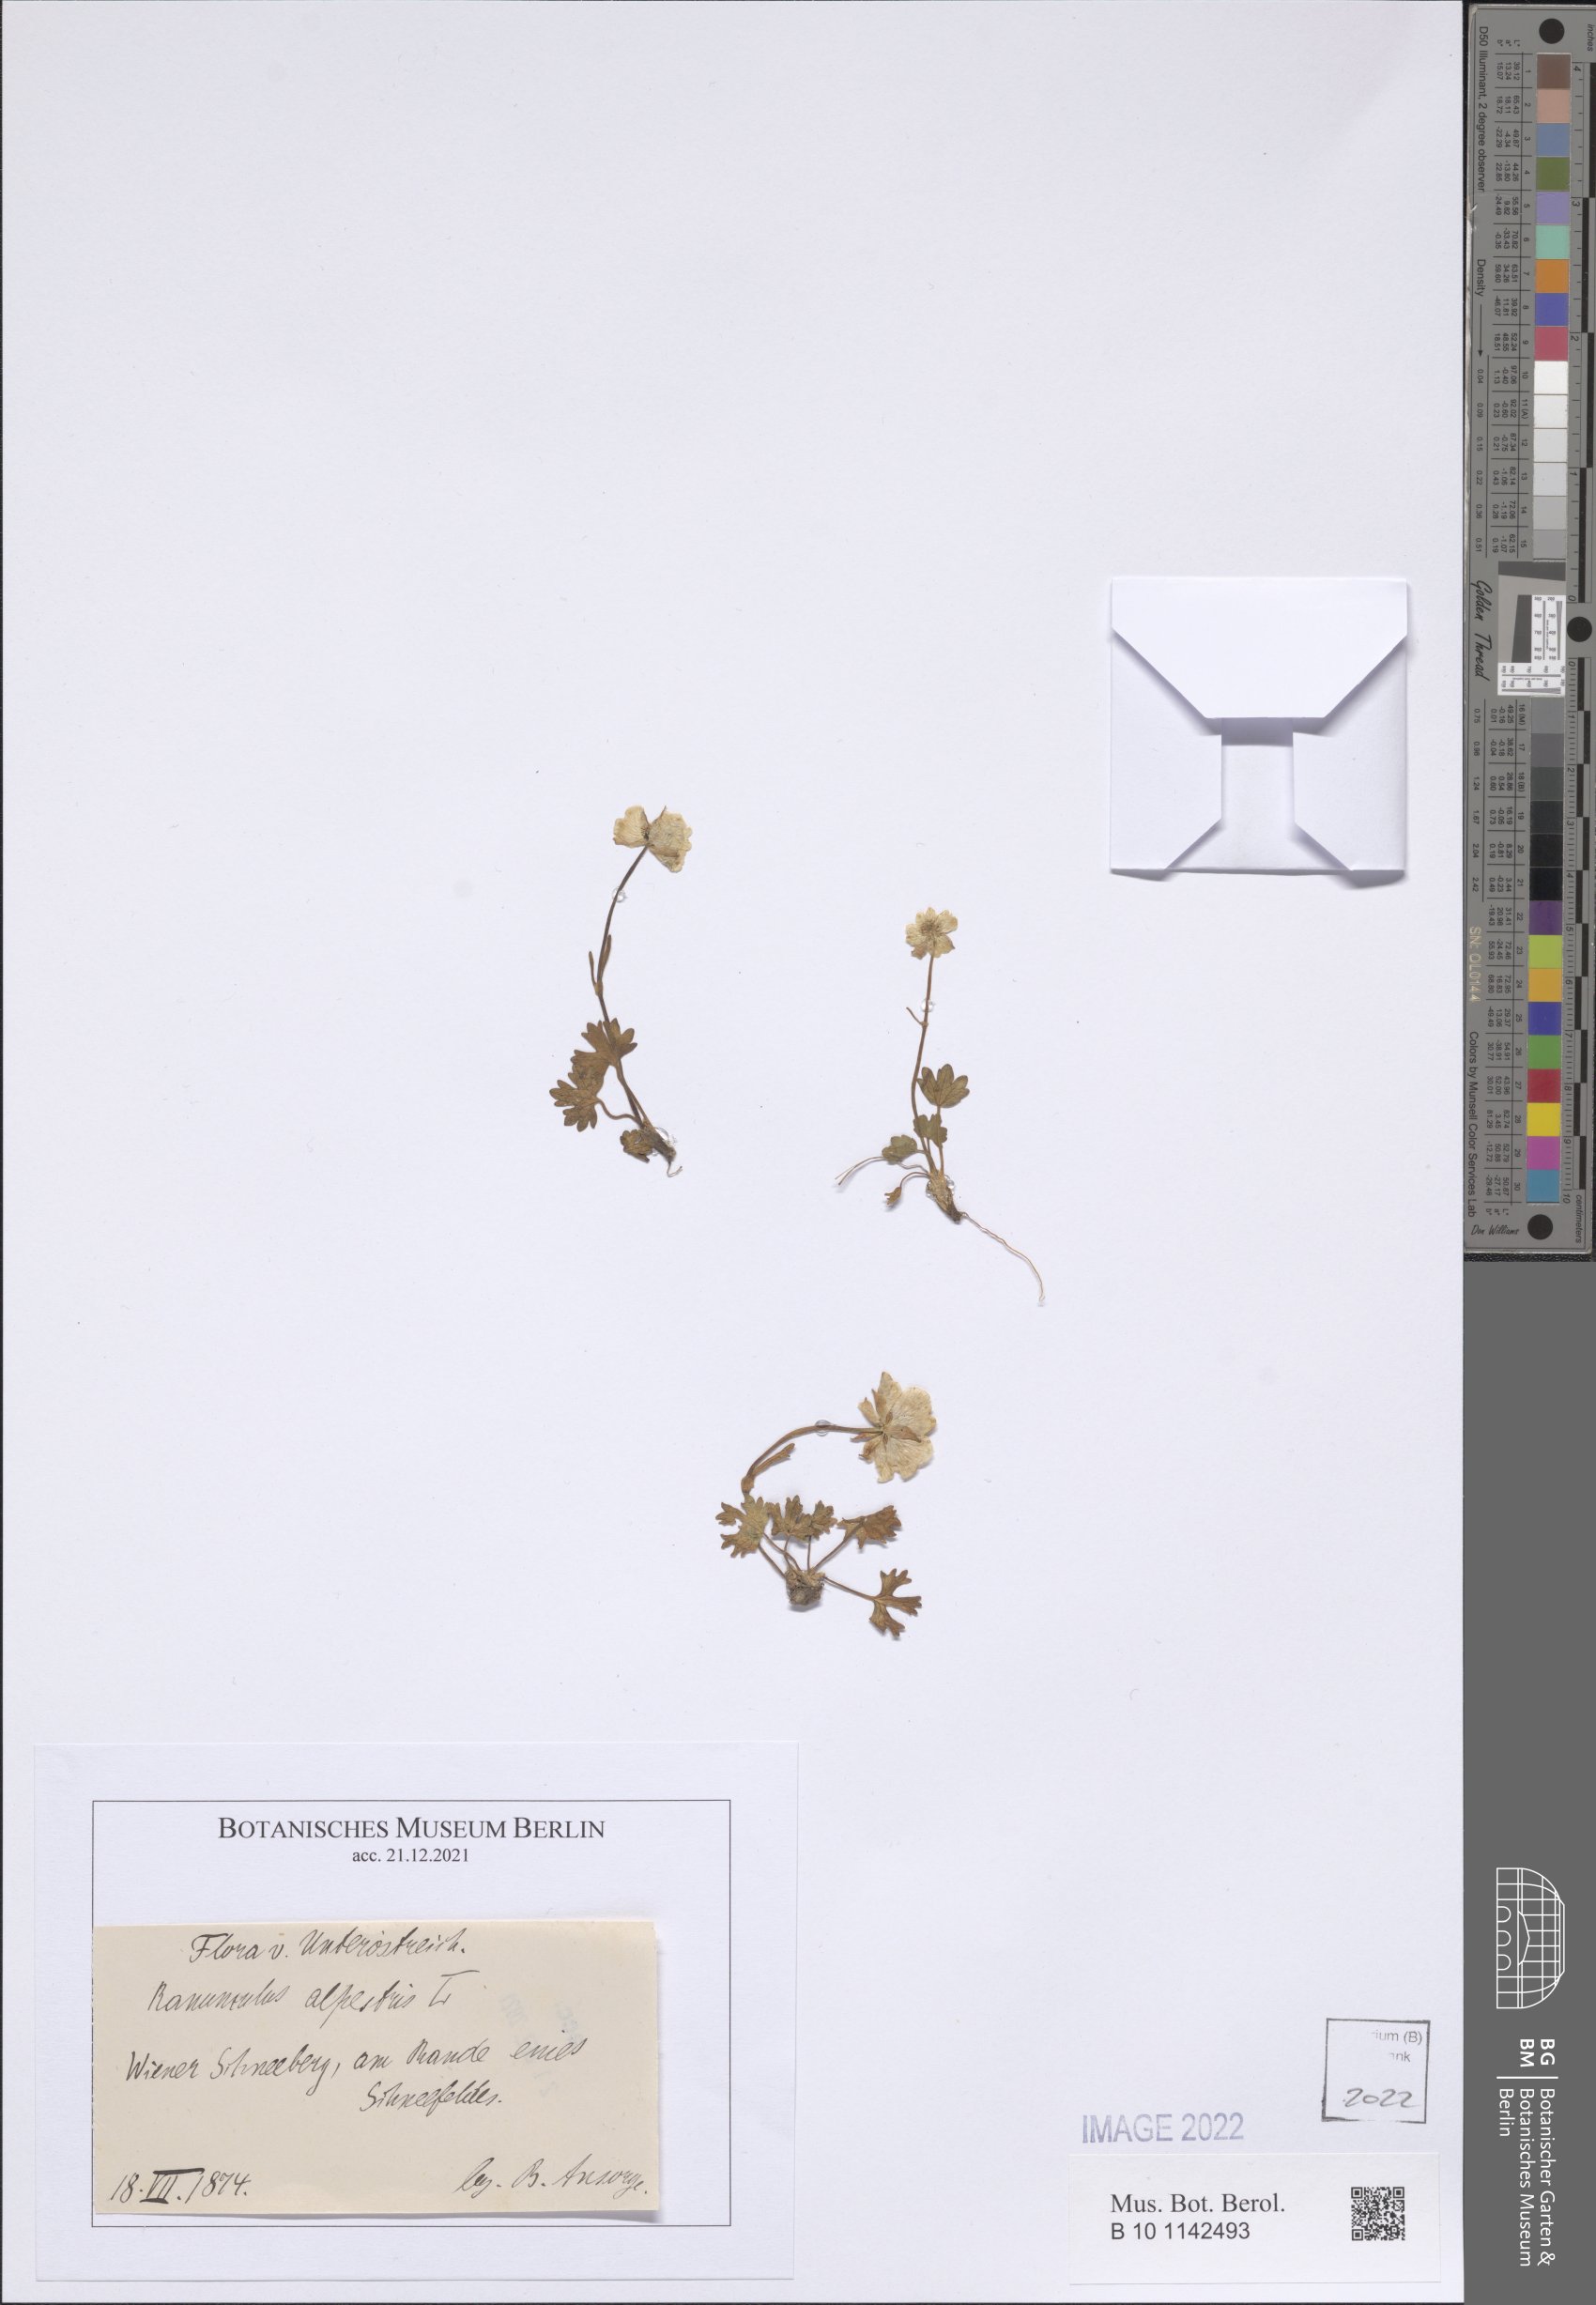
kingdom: Plantae
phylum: Tracheophyta
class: Magnoliopsida
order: Ranunculales
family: Ranunculaceae
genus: Ranunculus
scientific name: Ranunculus alpestris
